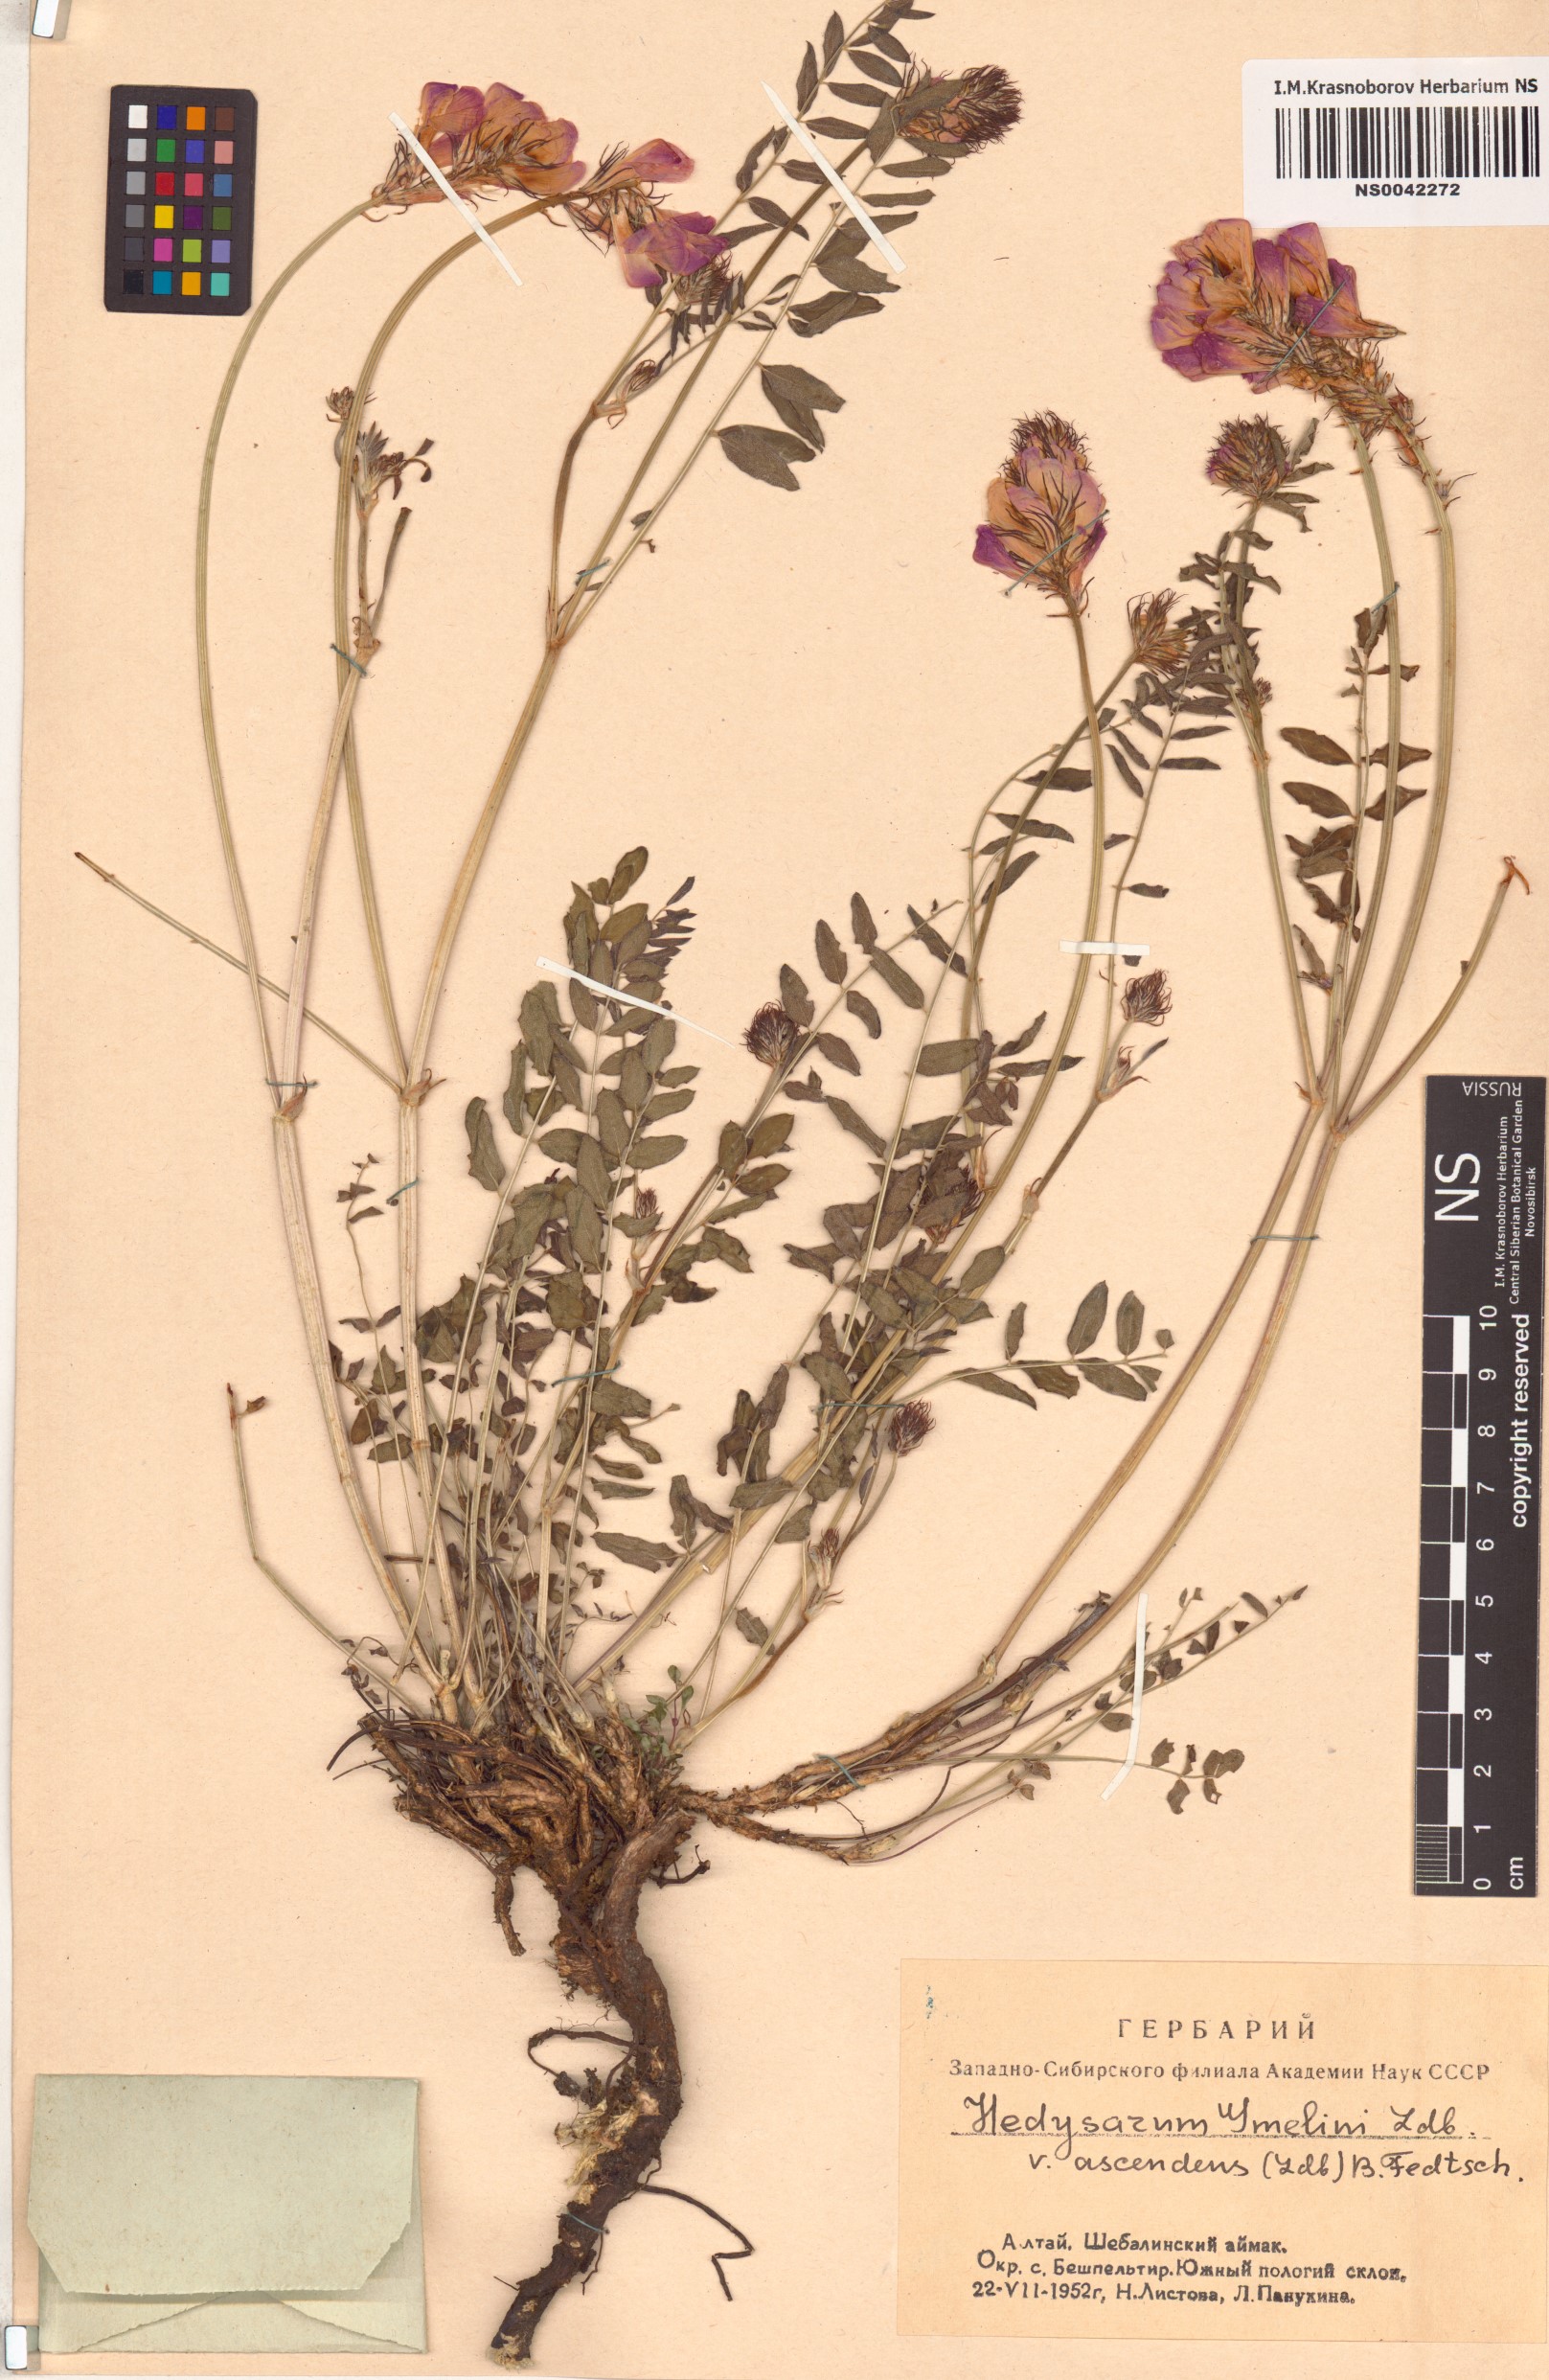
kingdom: Plantae
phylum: Tracheophyta
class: Magnoliopsida
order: Fabales
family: Fabaceae
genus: Hedysarum
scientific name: Hedysarum gmelinii
